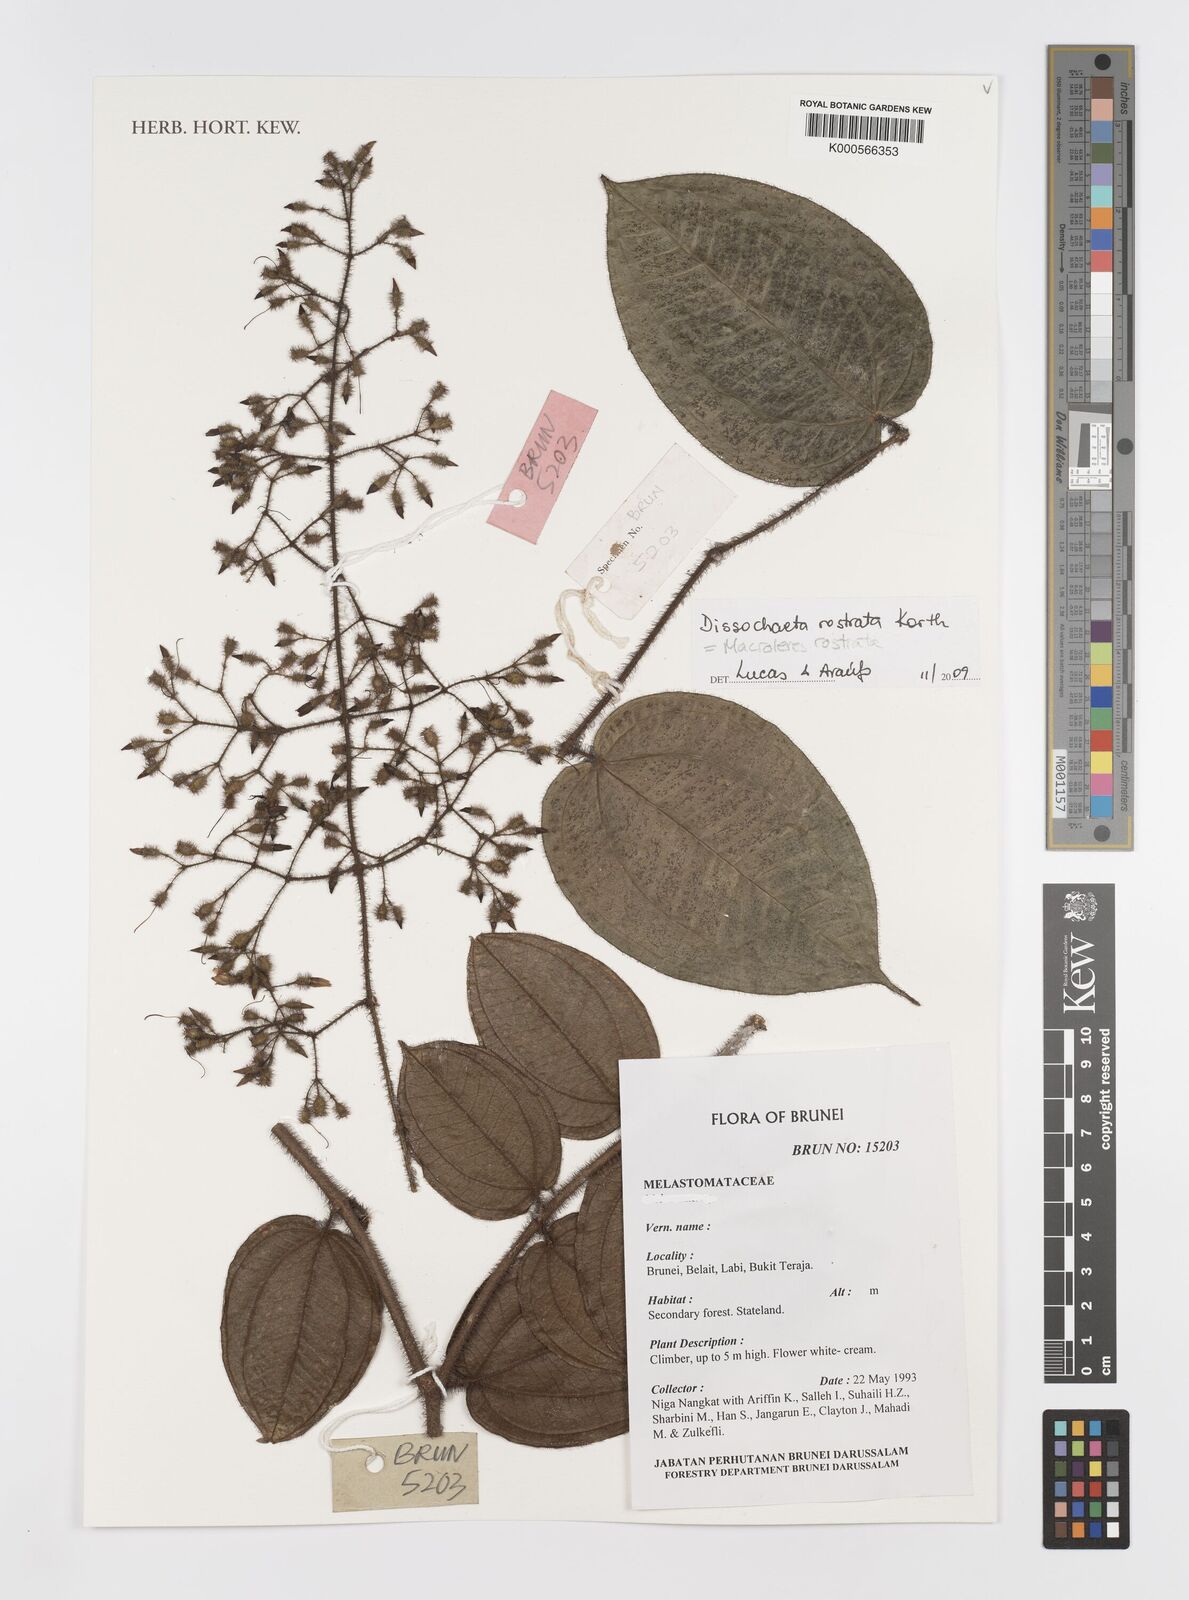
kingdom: Plantae
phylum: Tracheophyta
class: Magnoliopsida
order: Myrtales
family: Melastomataceae
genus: Macrolenes
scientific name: Macrolenes rostrata
